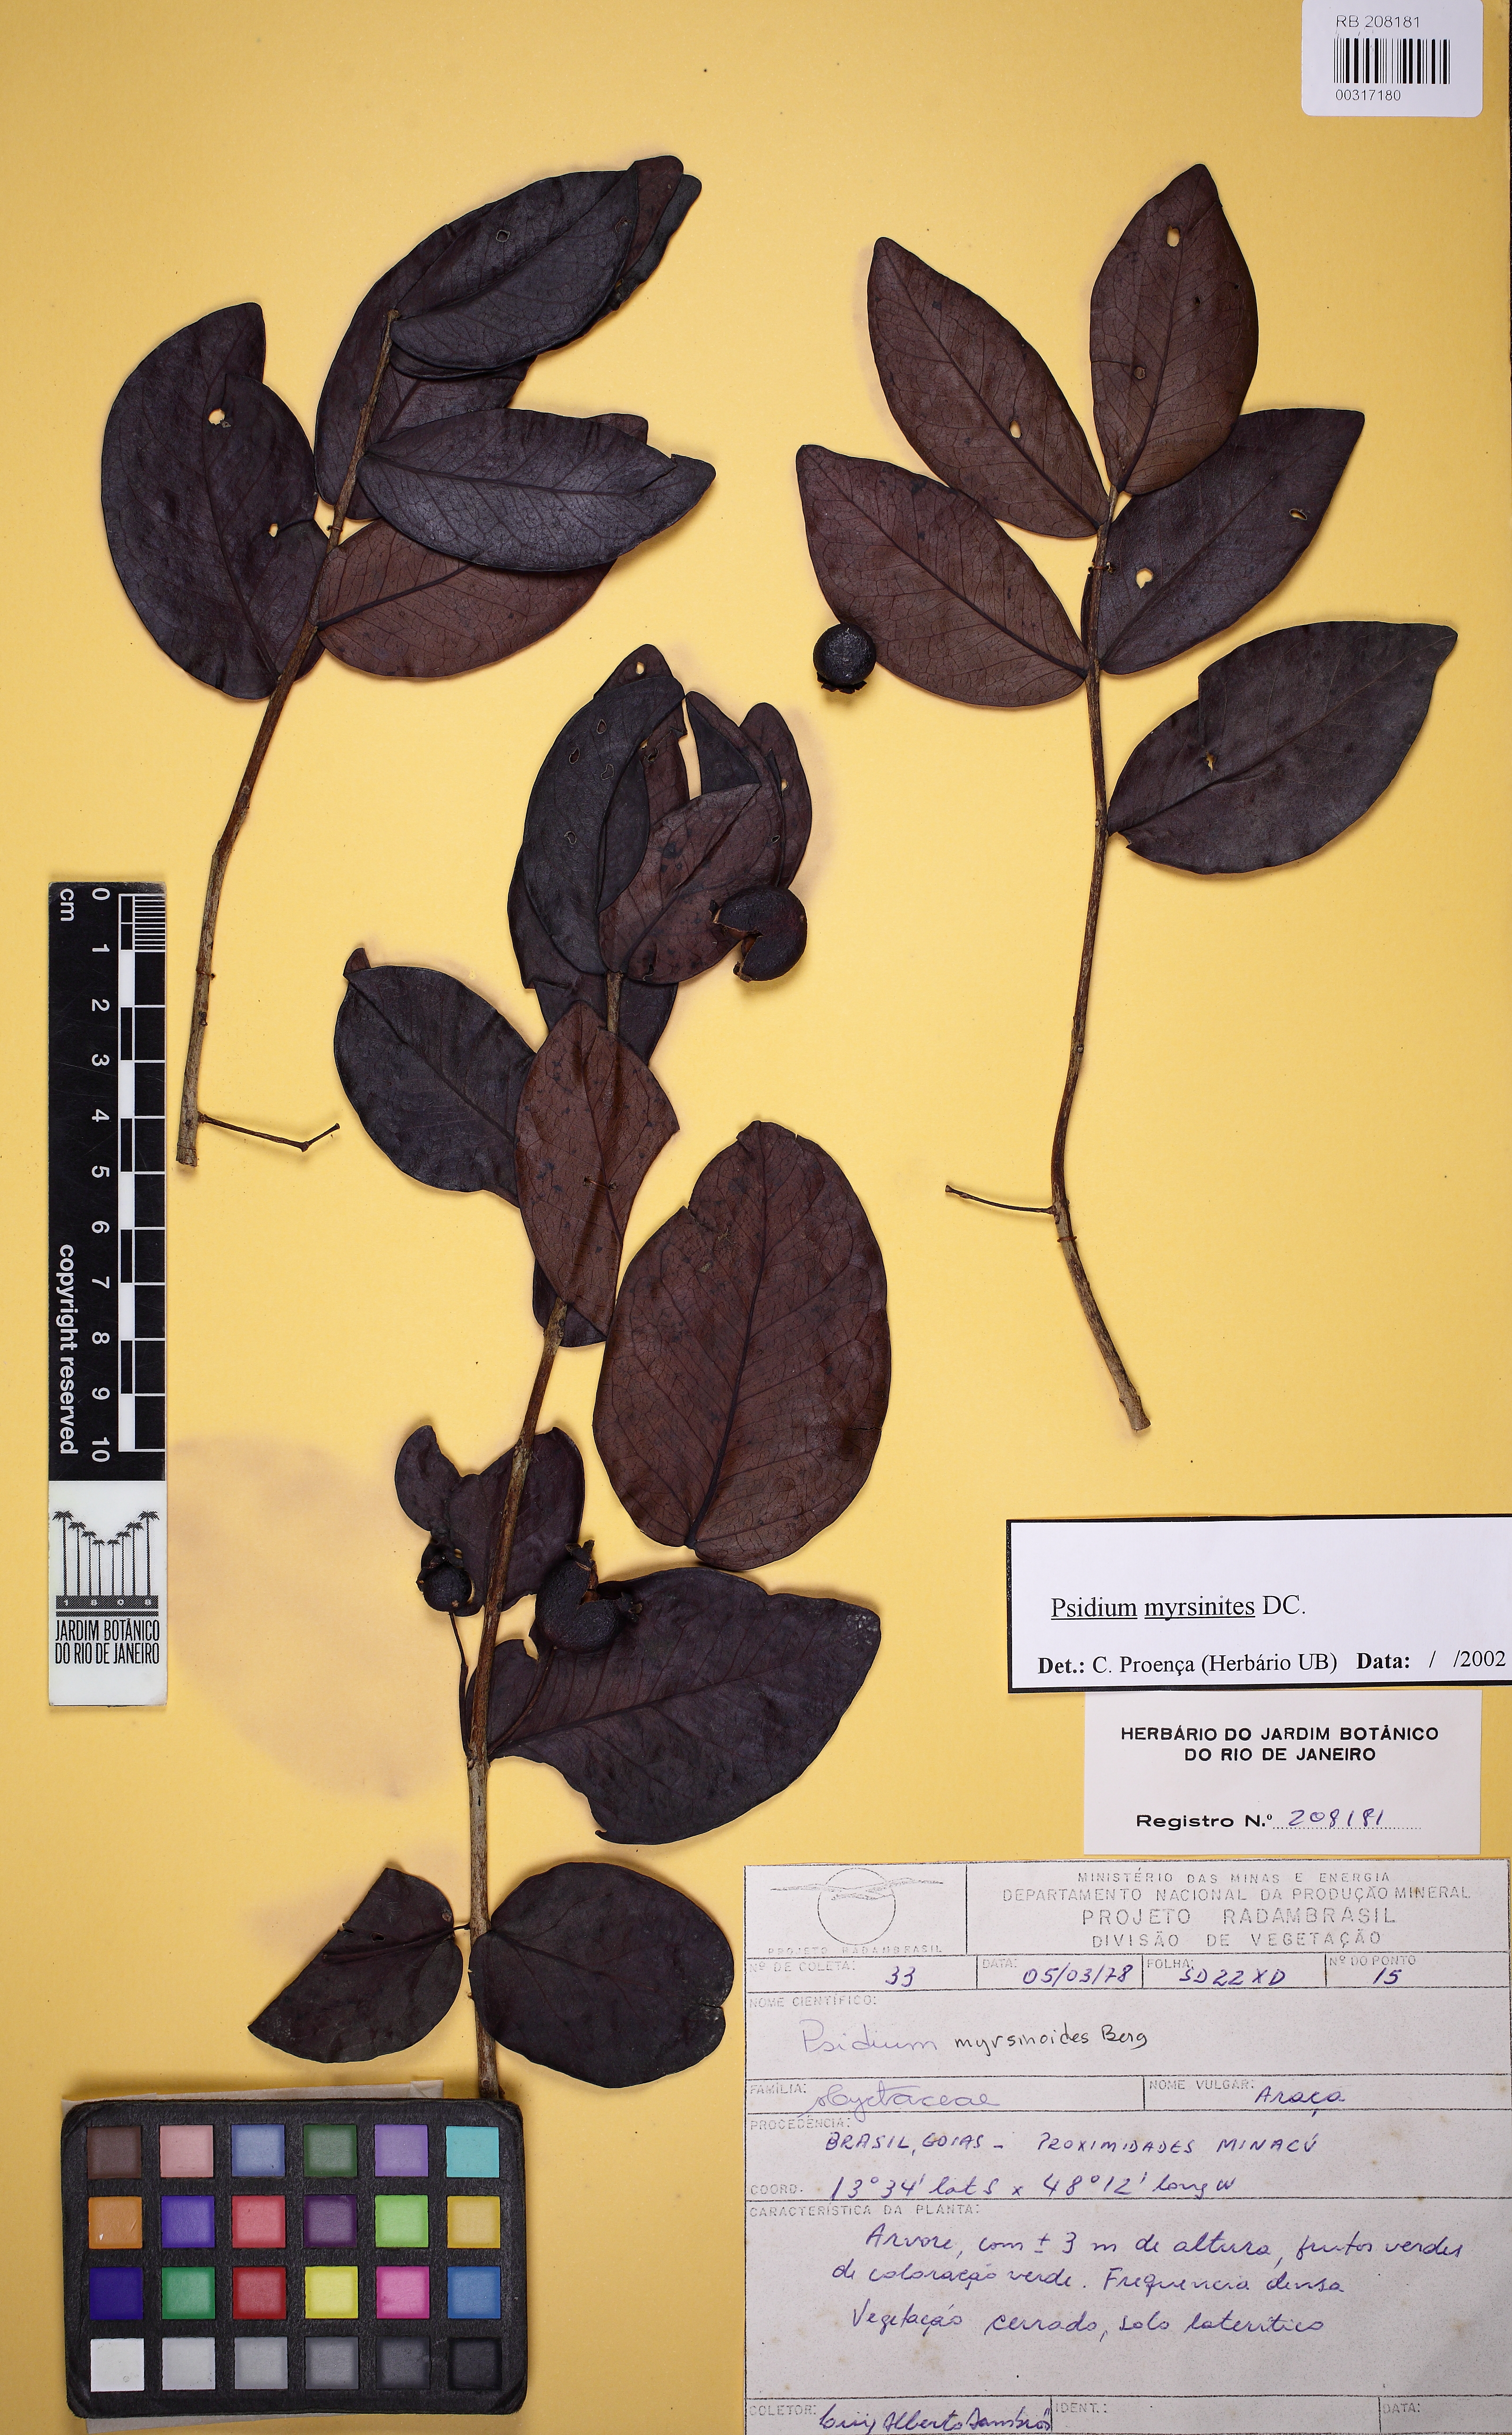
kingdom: Plantae
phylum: Tracheophyta
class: Magnoliopsida
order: Myrtales
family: Myrtaceae
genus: Psidium
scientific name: Psidium myrsinites
